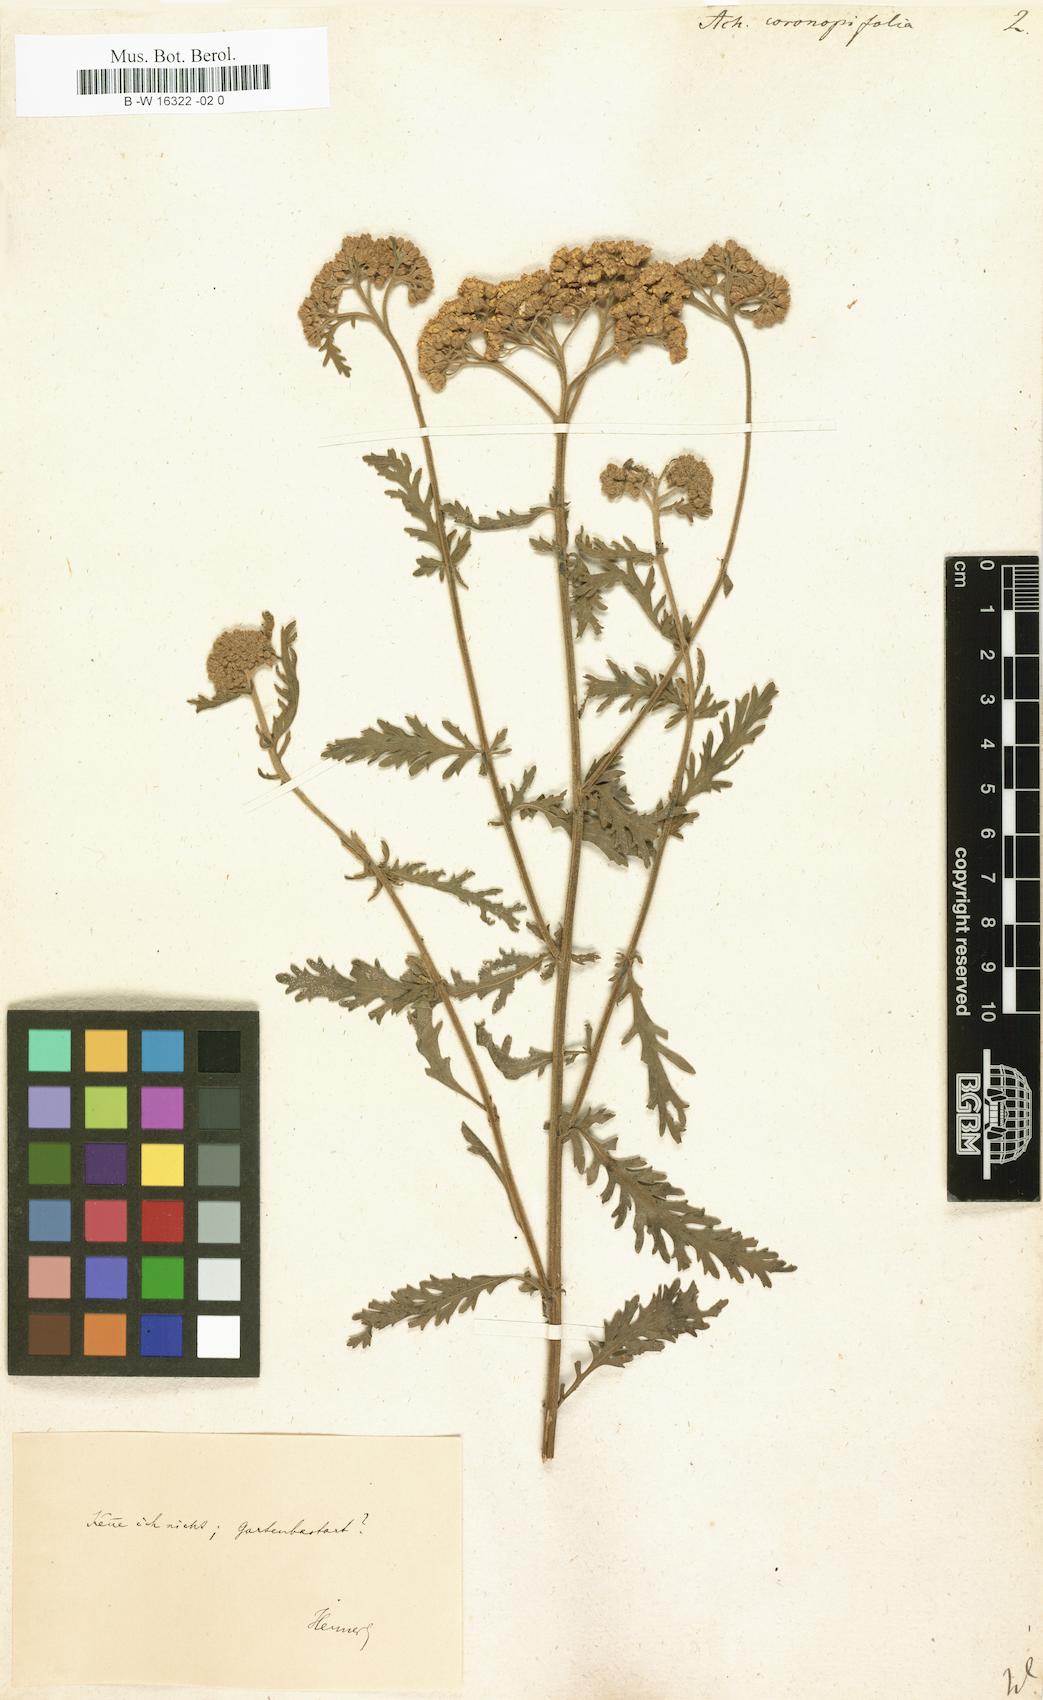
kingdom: Plantae
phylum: Tracheophyta
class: Magnoliopsida
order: Asterales
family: Asteraceae
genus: Achillea
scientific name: Achillea millefolium
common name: Yarrow
